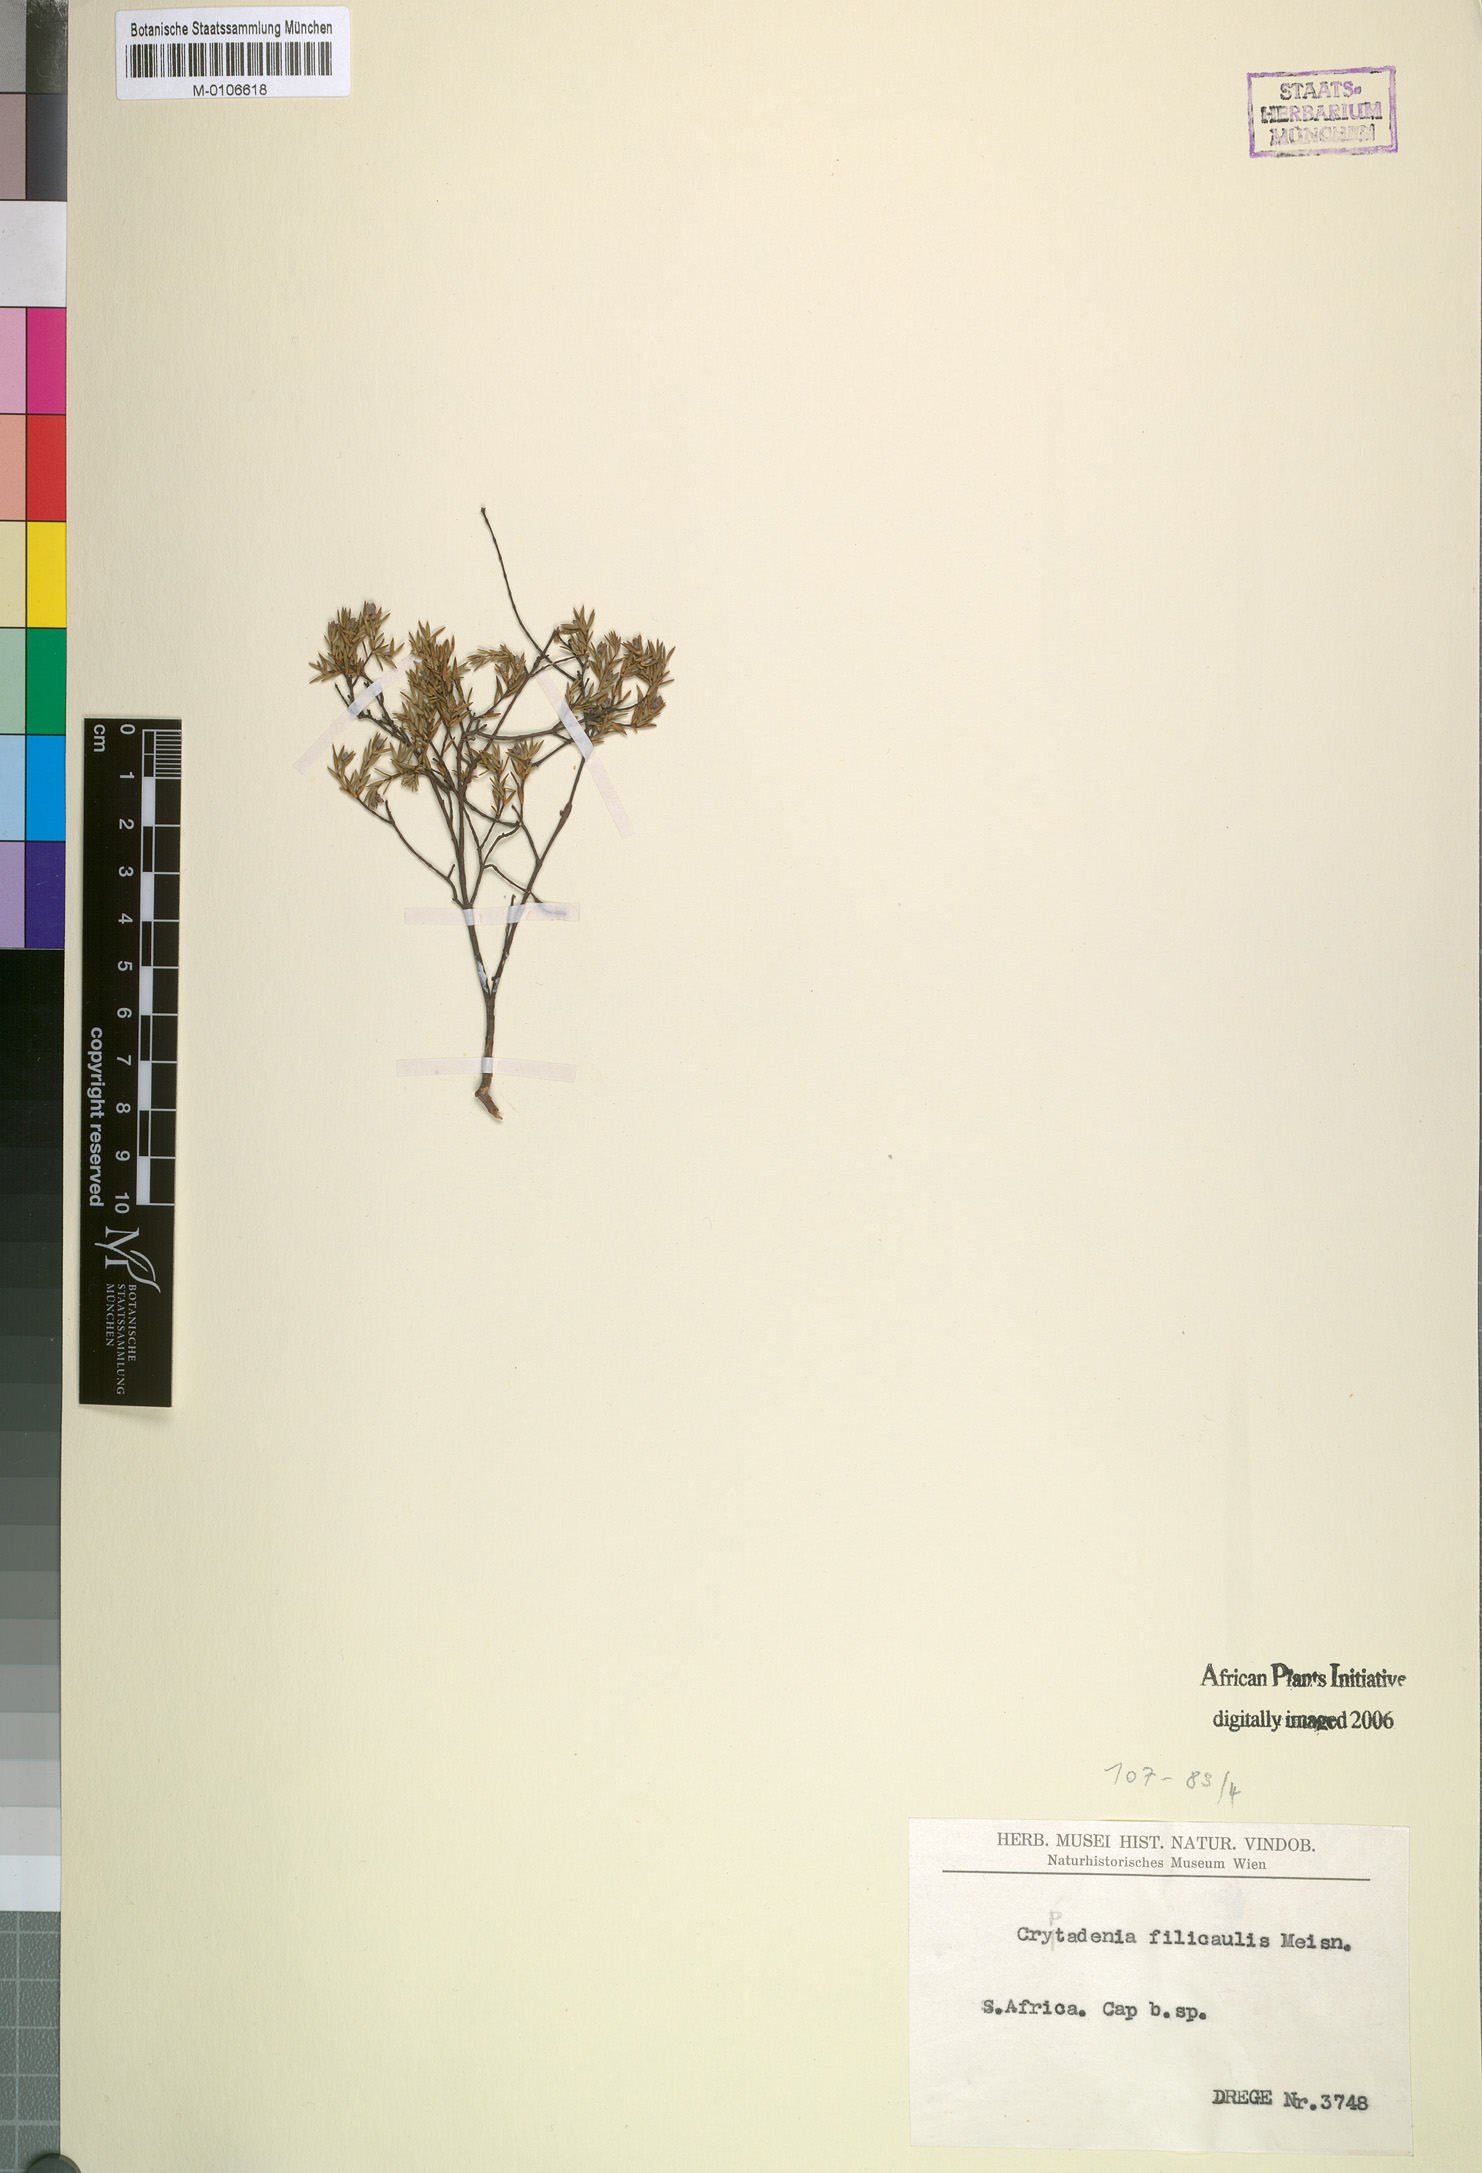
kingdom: Plantae
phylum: Tracheophyta
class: Magnoliopsida
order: Malvales
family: Thymelaeaceae
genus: Lachnaea
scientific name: Lachnaea filicaulis
